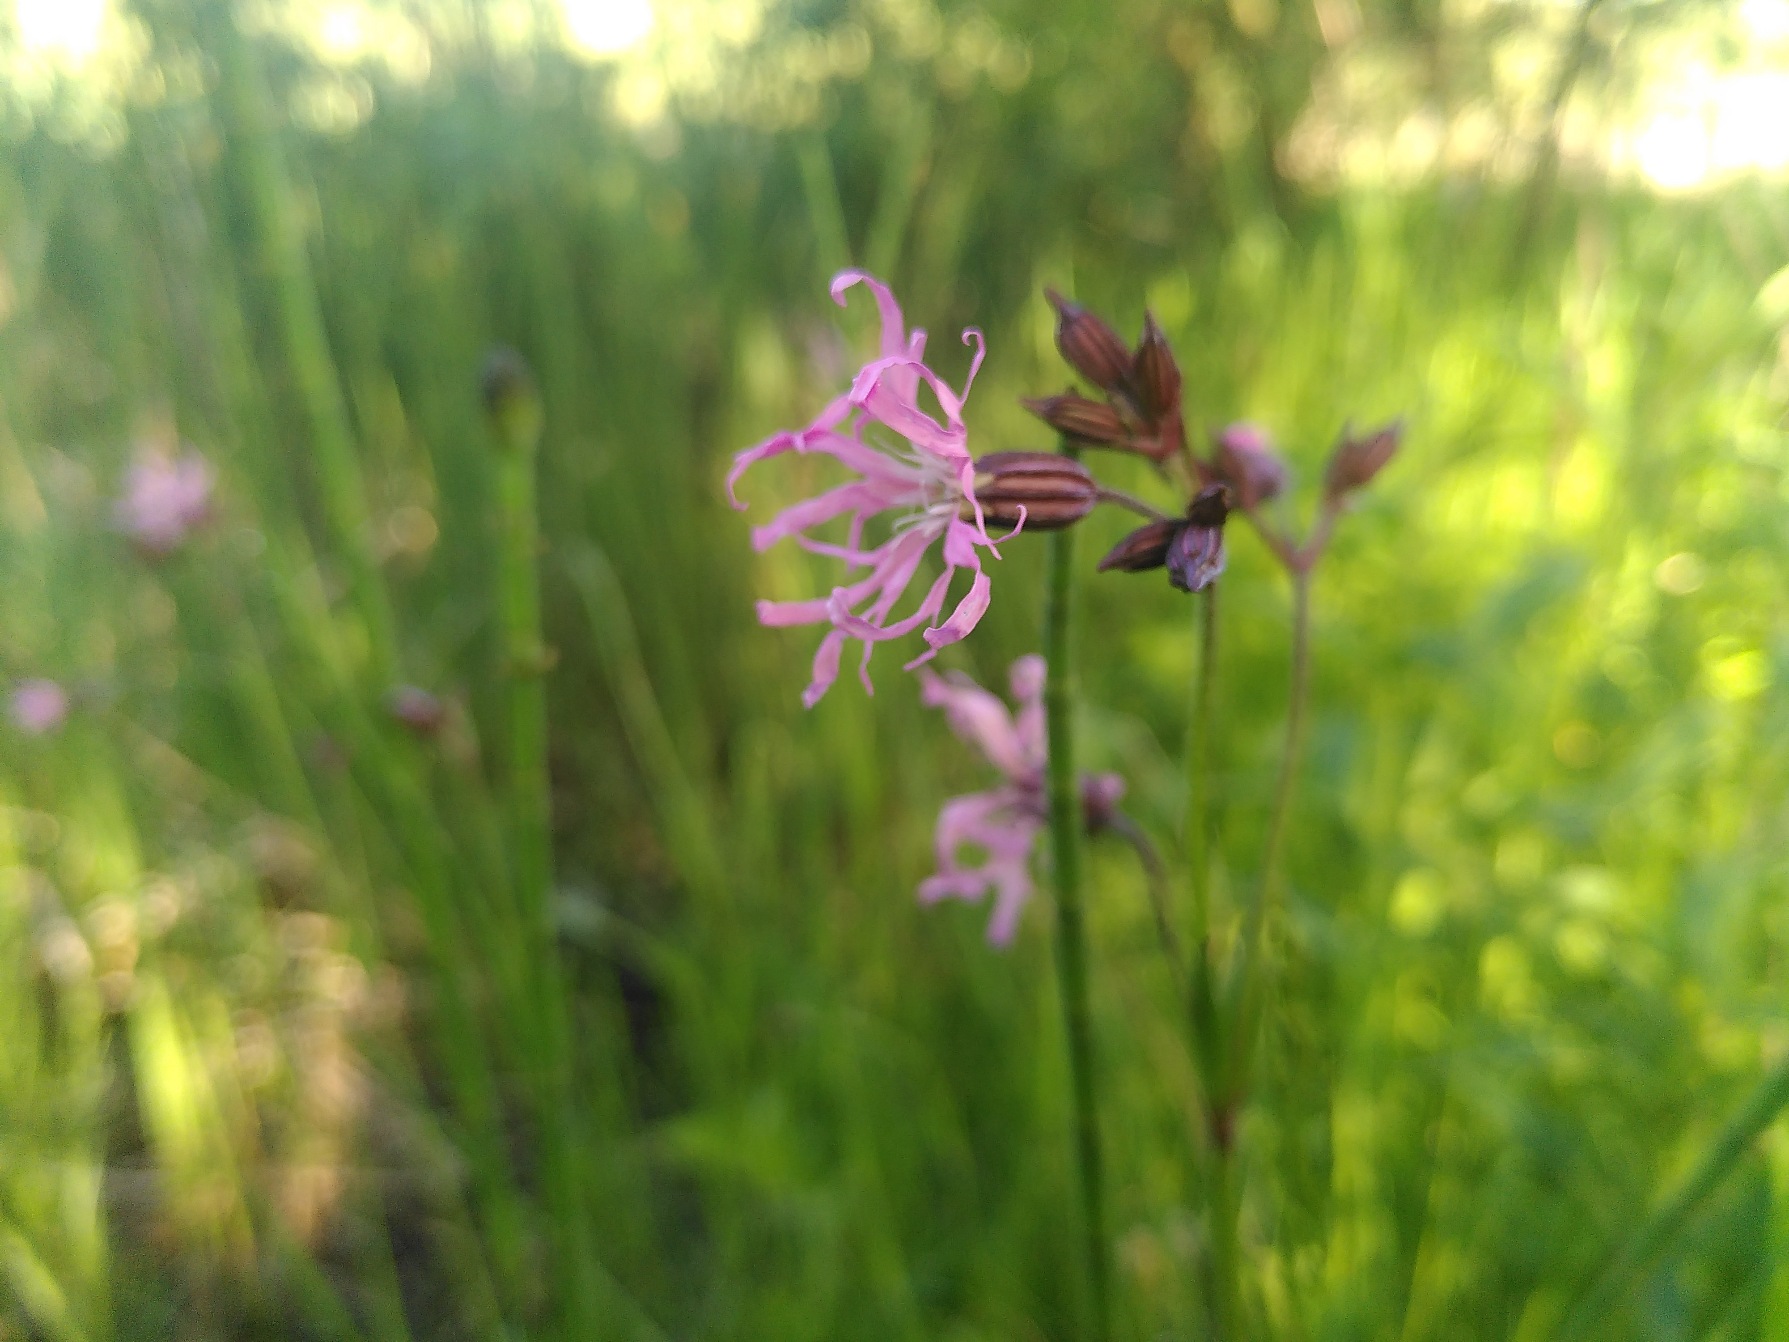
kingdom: Plantae
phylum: Tracheophyta
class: Magnoliopsida
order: Caryophyllales
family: Caryophyllaceae
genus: Silene
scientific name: Silene flos-cuculi
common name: Trævlekrone
